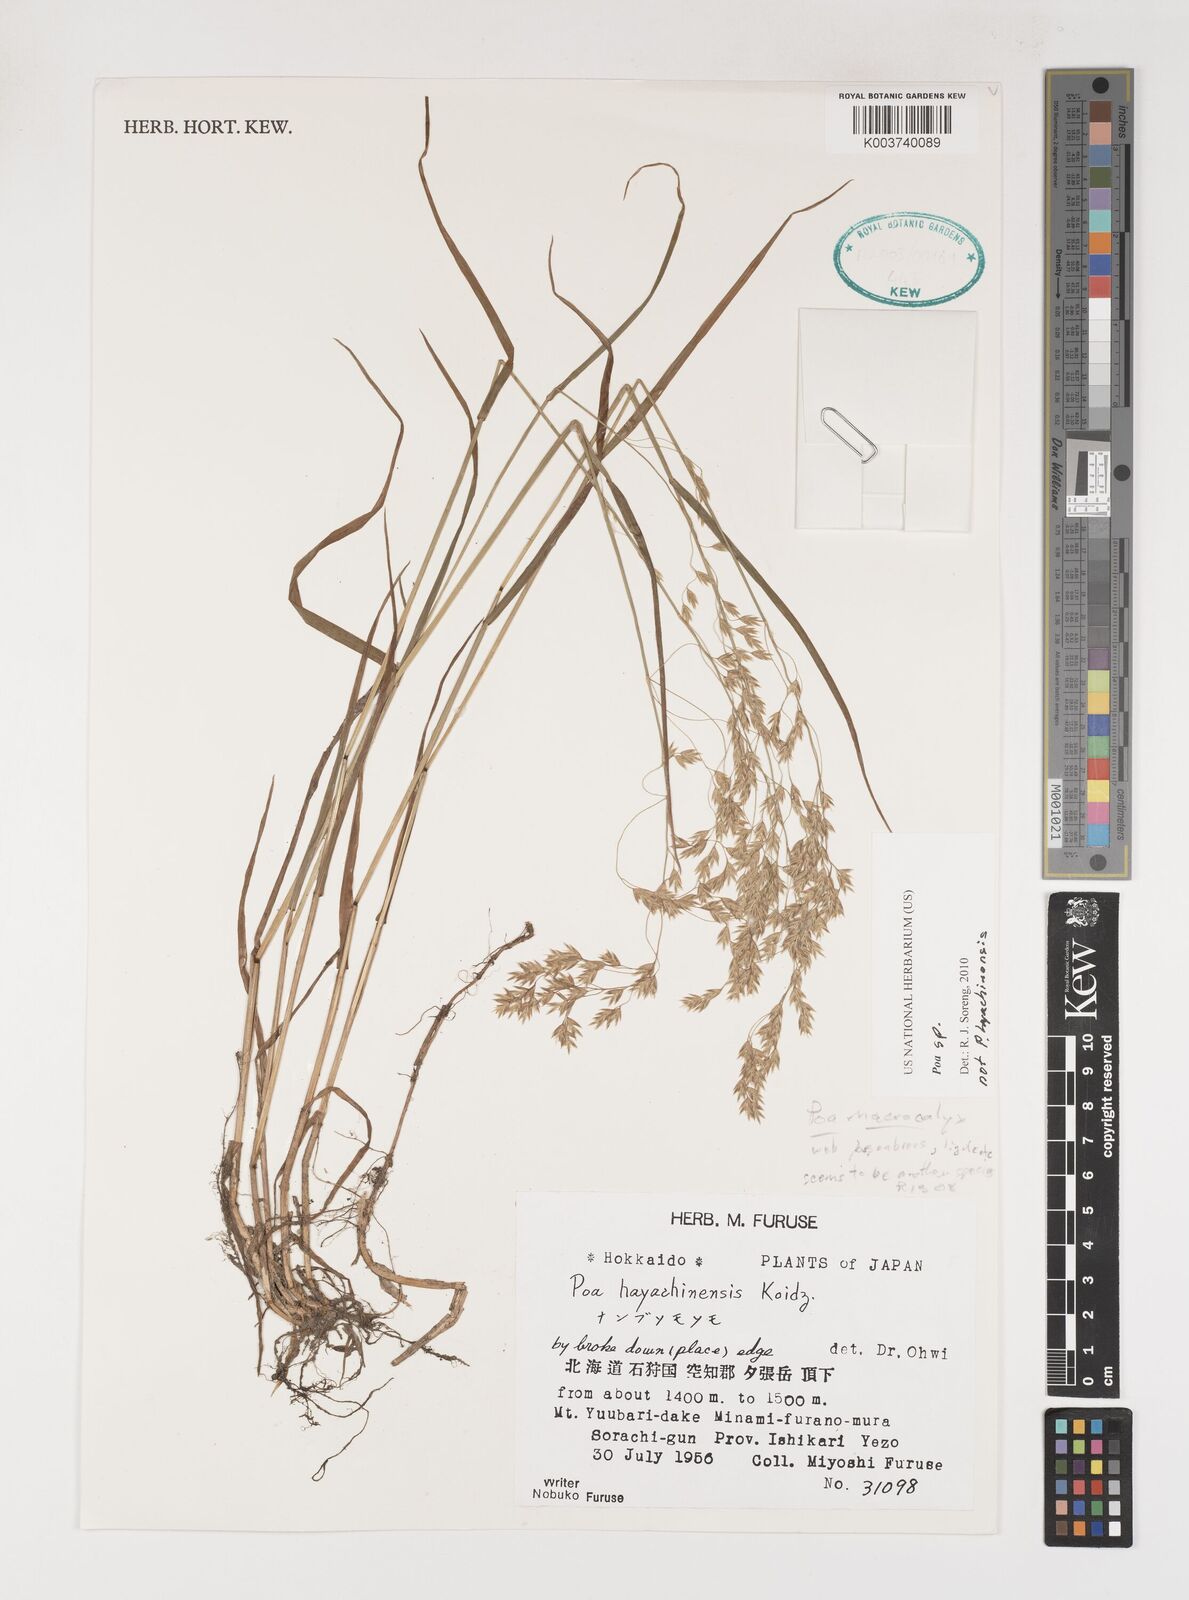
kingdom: Plantae
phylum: Tracheophyta
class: Liliopsida
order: Poales
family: Poaceae
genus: Poa
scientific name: Poa
